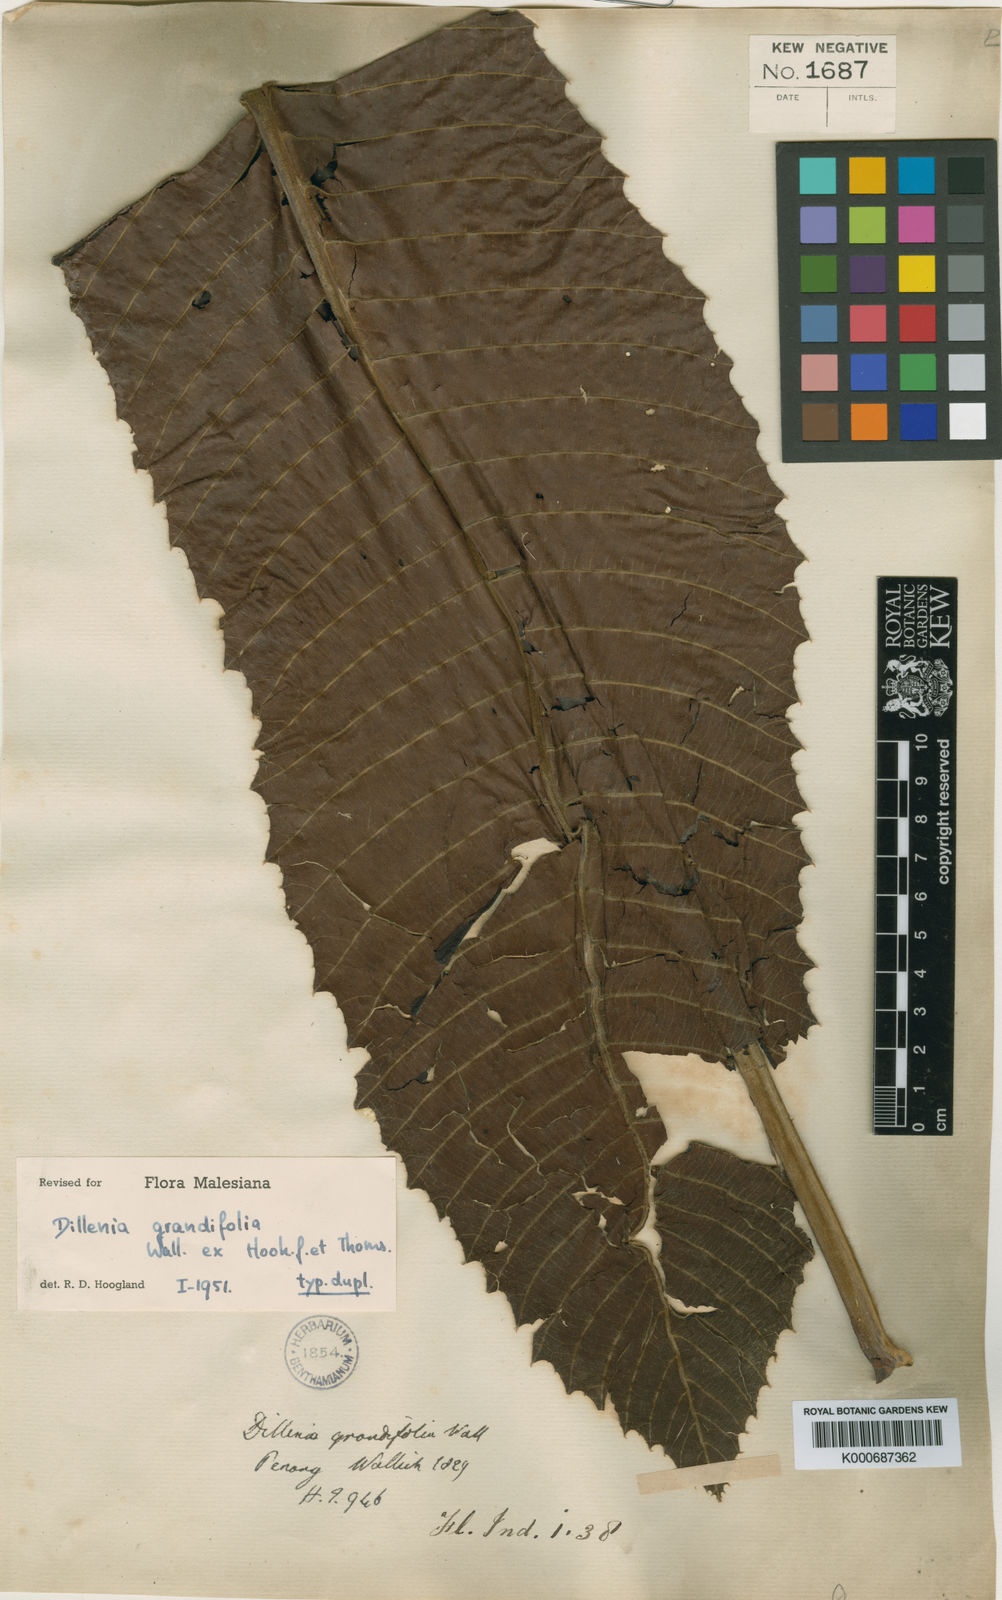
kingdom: Plantae
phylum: Tracheophyta
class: Magnoliopsida
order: Dilleniales
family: Dilleniaceae
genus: Dillenia
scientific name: Dillenia grandifolia
